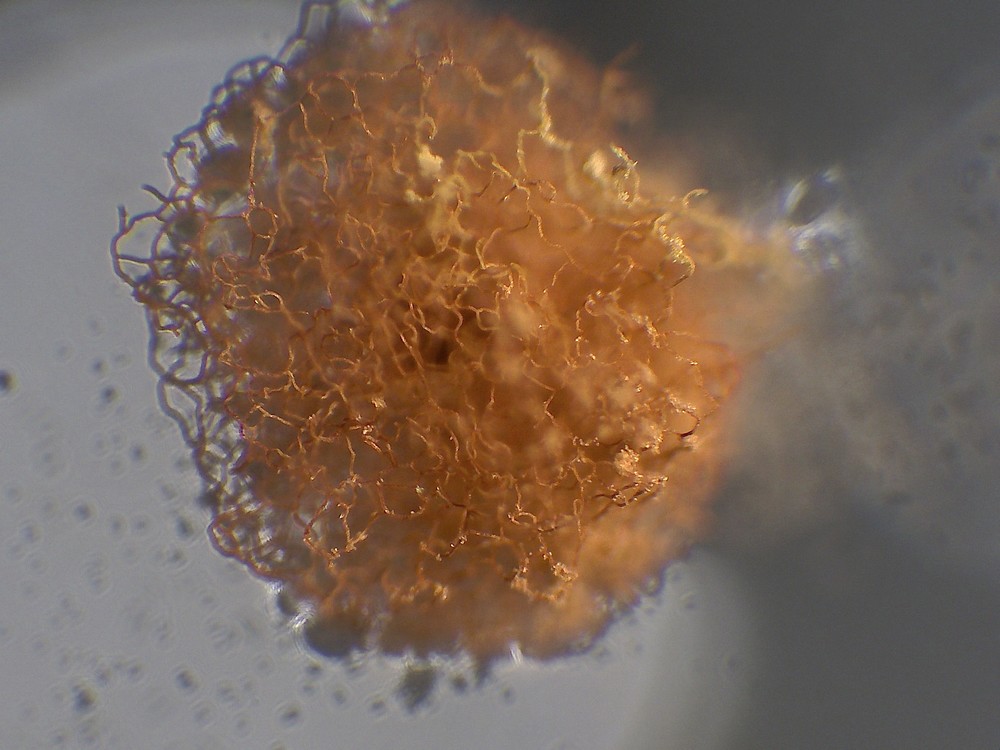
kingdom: Protozoa
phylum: Mycetozoa
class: Myxomycetes
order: Trichiales
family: Arcyriaceae
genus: Arcyria
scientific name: Arcyria ferruginea
